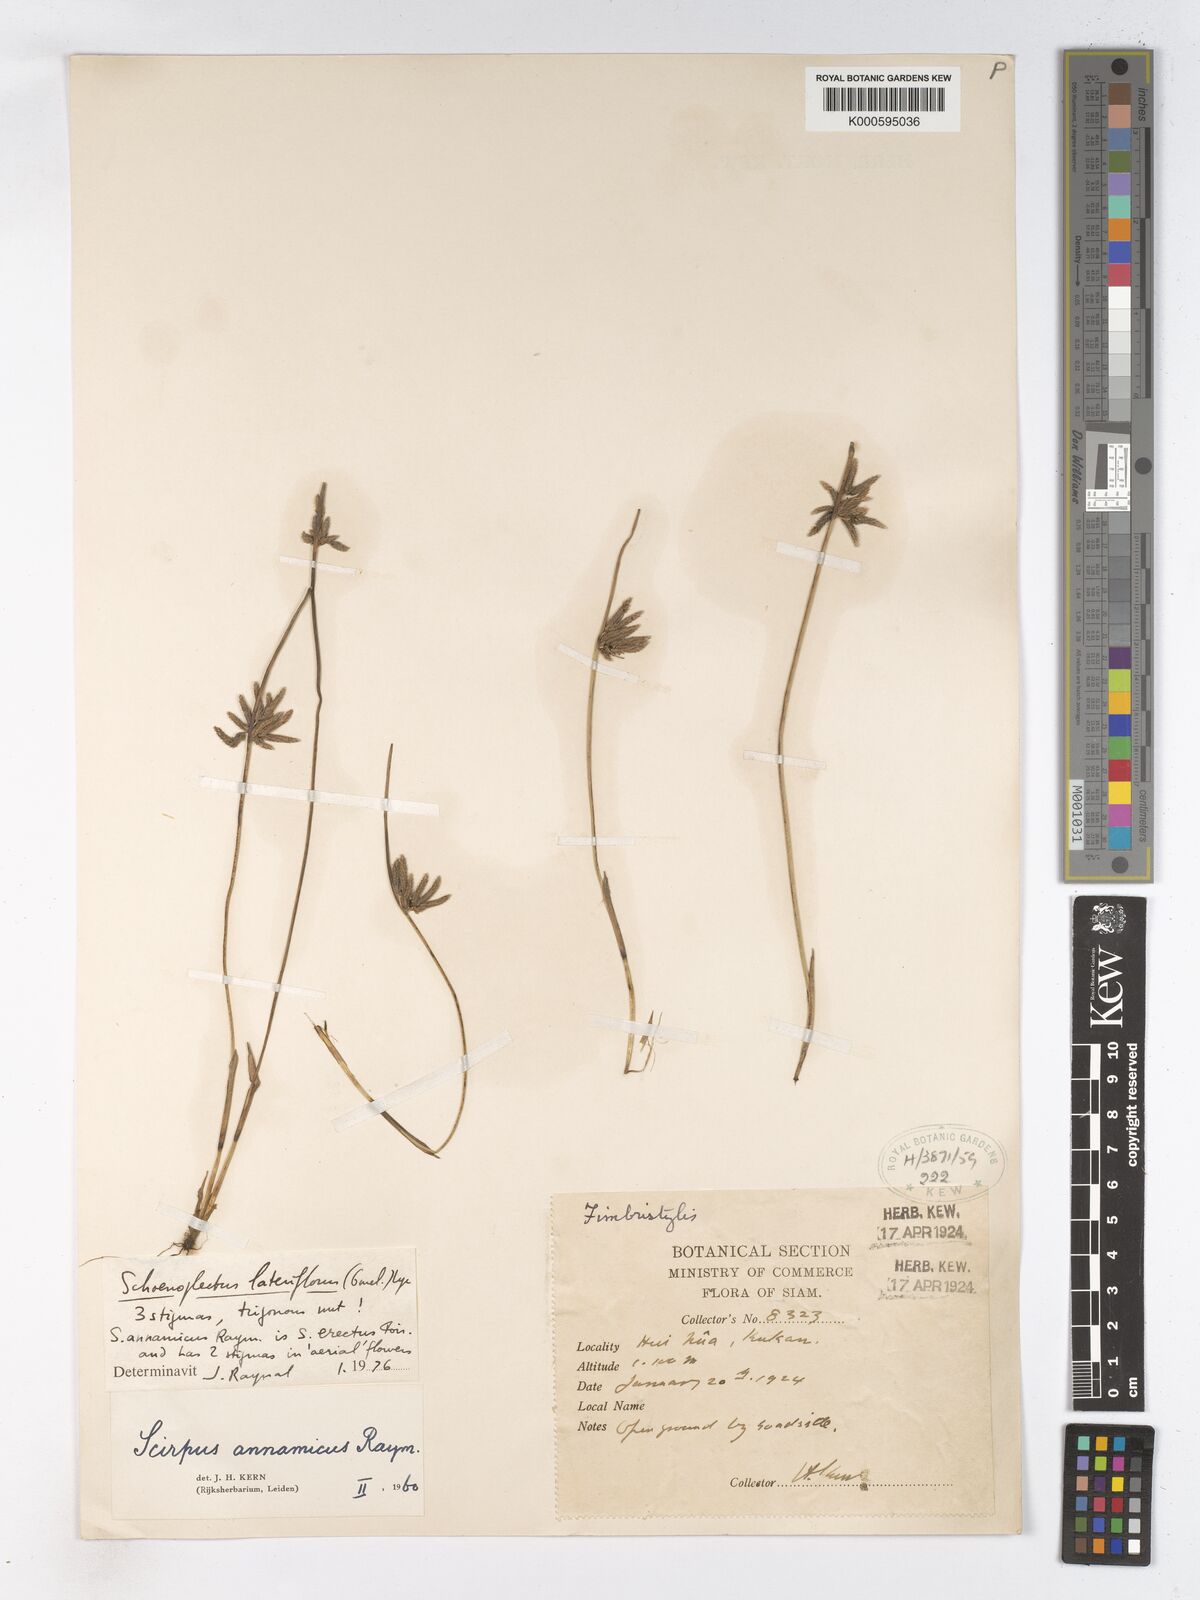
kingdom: Plantae
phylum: Tracheophyta
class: Liliopsida
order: Poales
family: Cyperaceae
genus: Schoenoplectiella
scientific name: Schoenoplectiella supina
